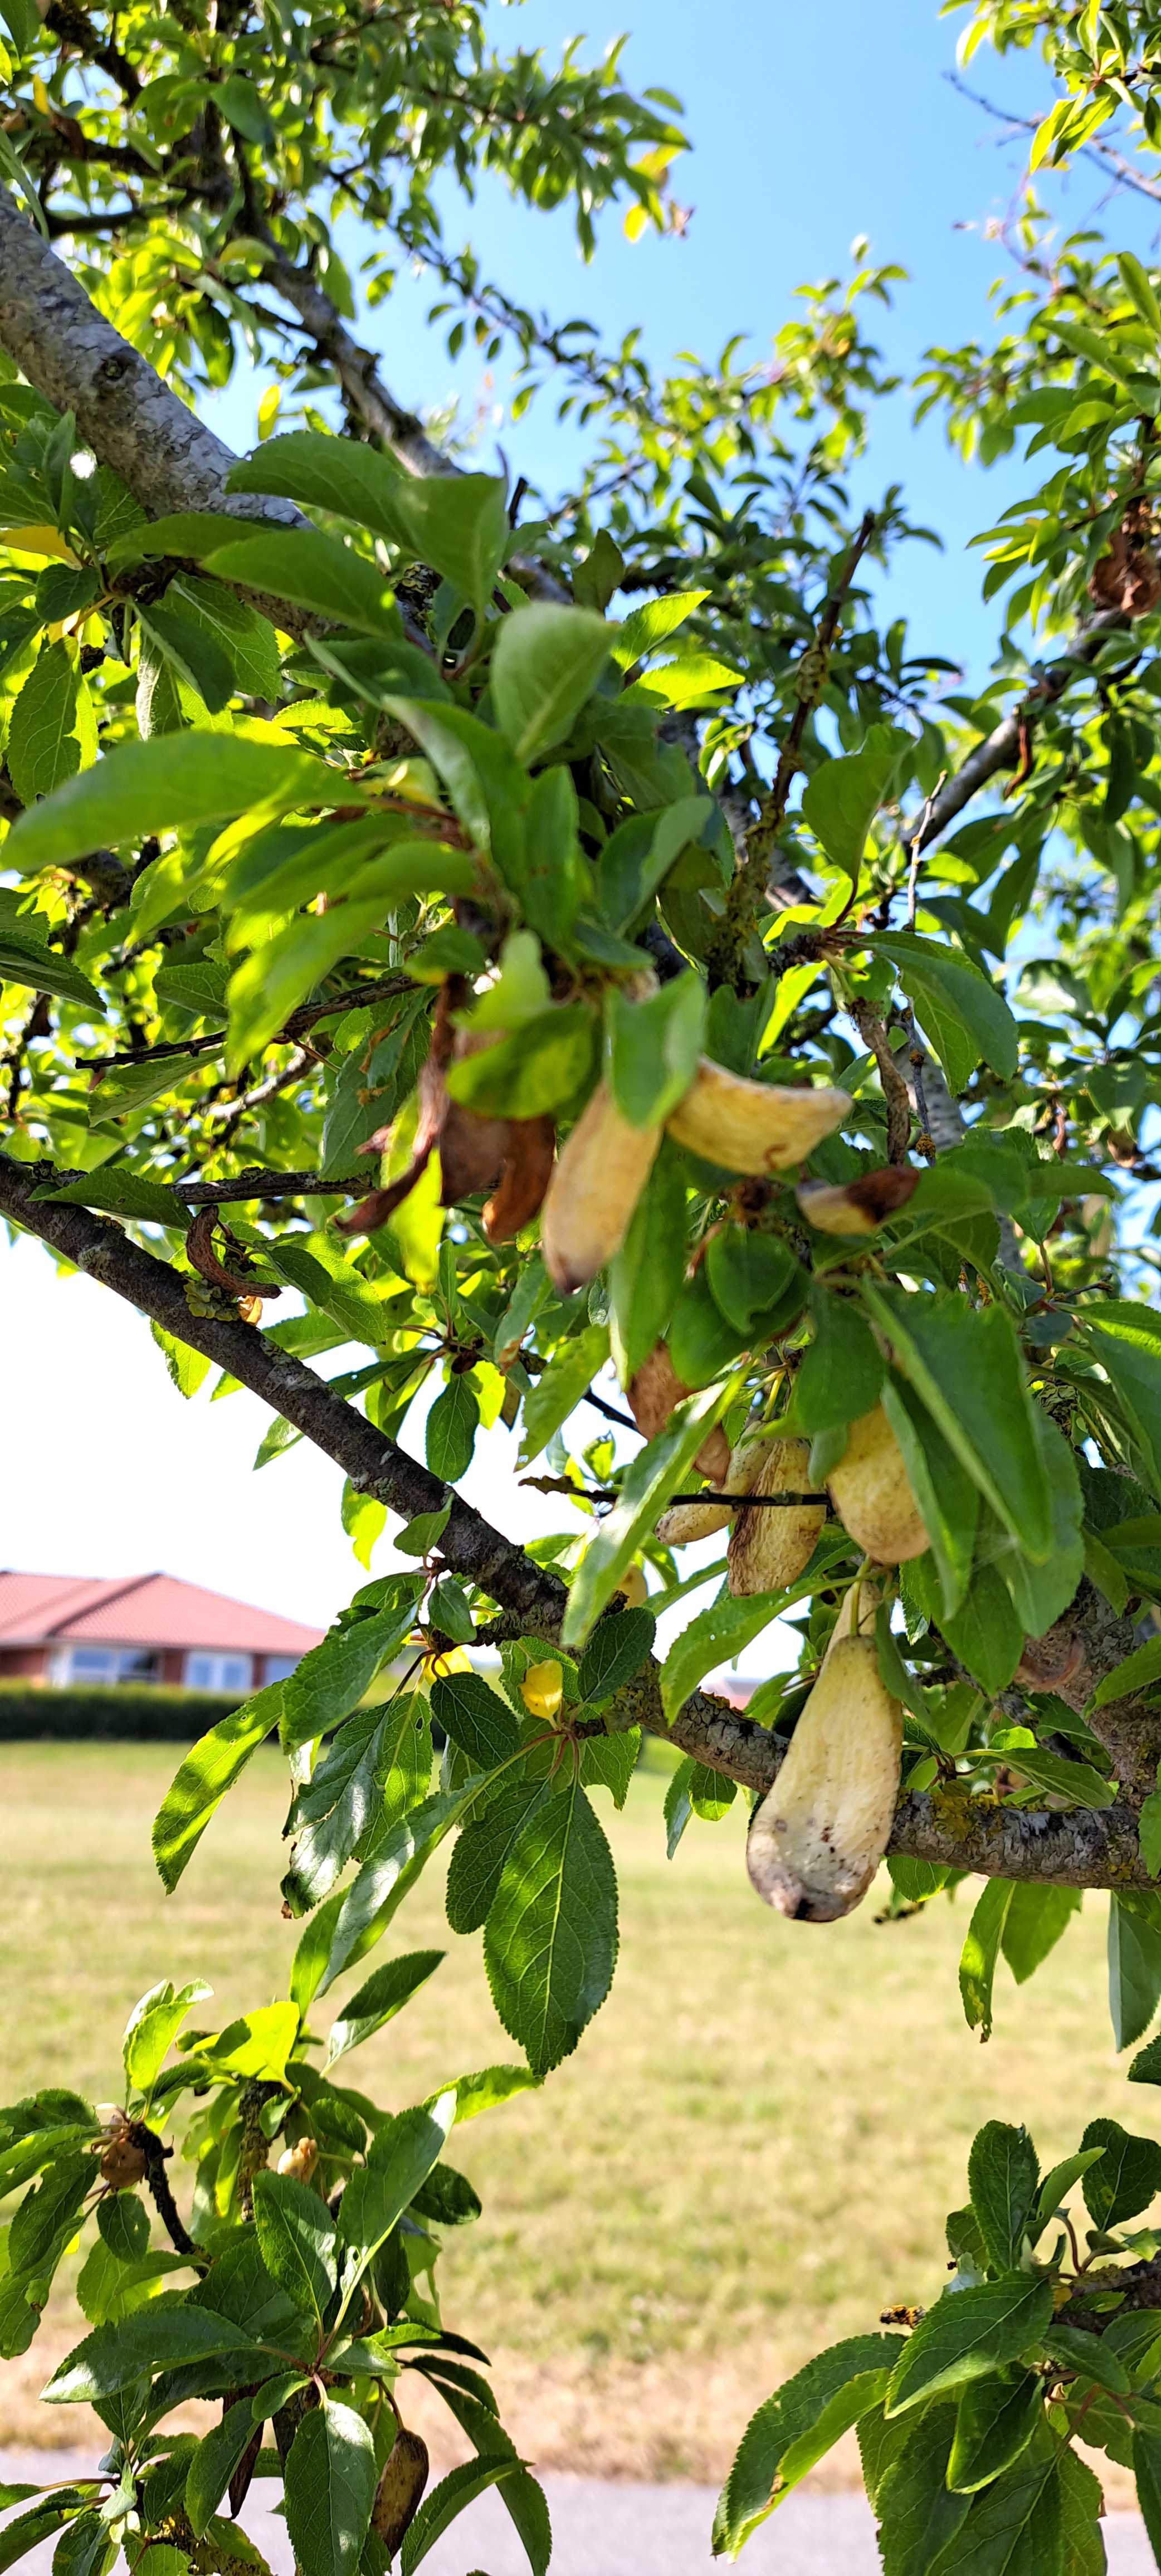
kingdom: Fungi
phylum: Ascomycota
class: Taphrinomycetes
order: Taphrinales
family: Taphrinaceae
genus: Taphrina
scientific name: Taphrina pruni
